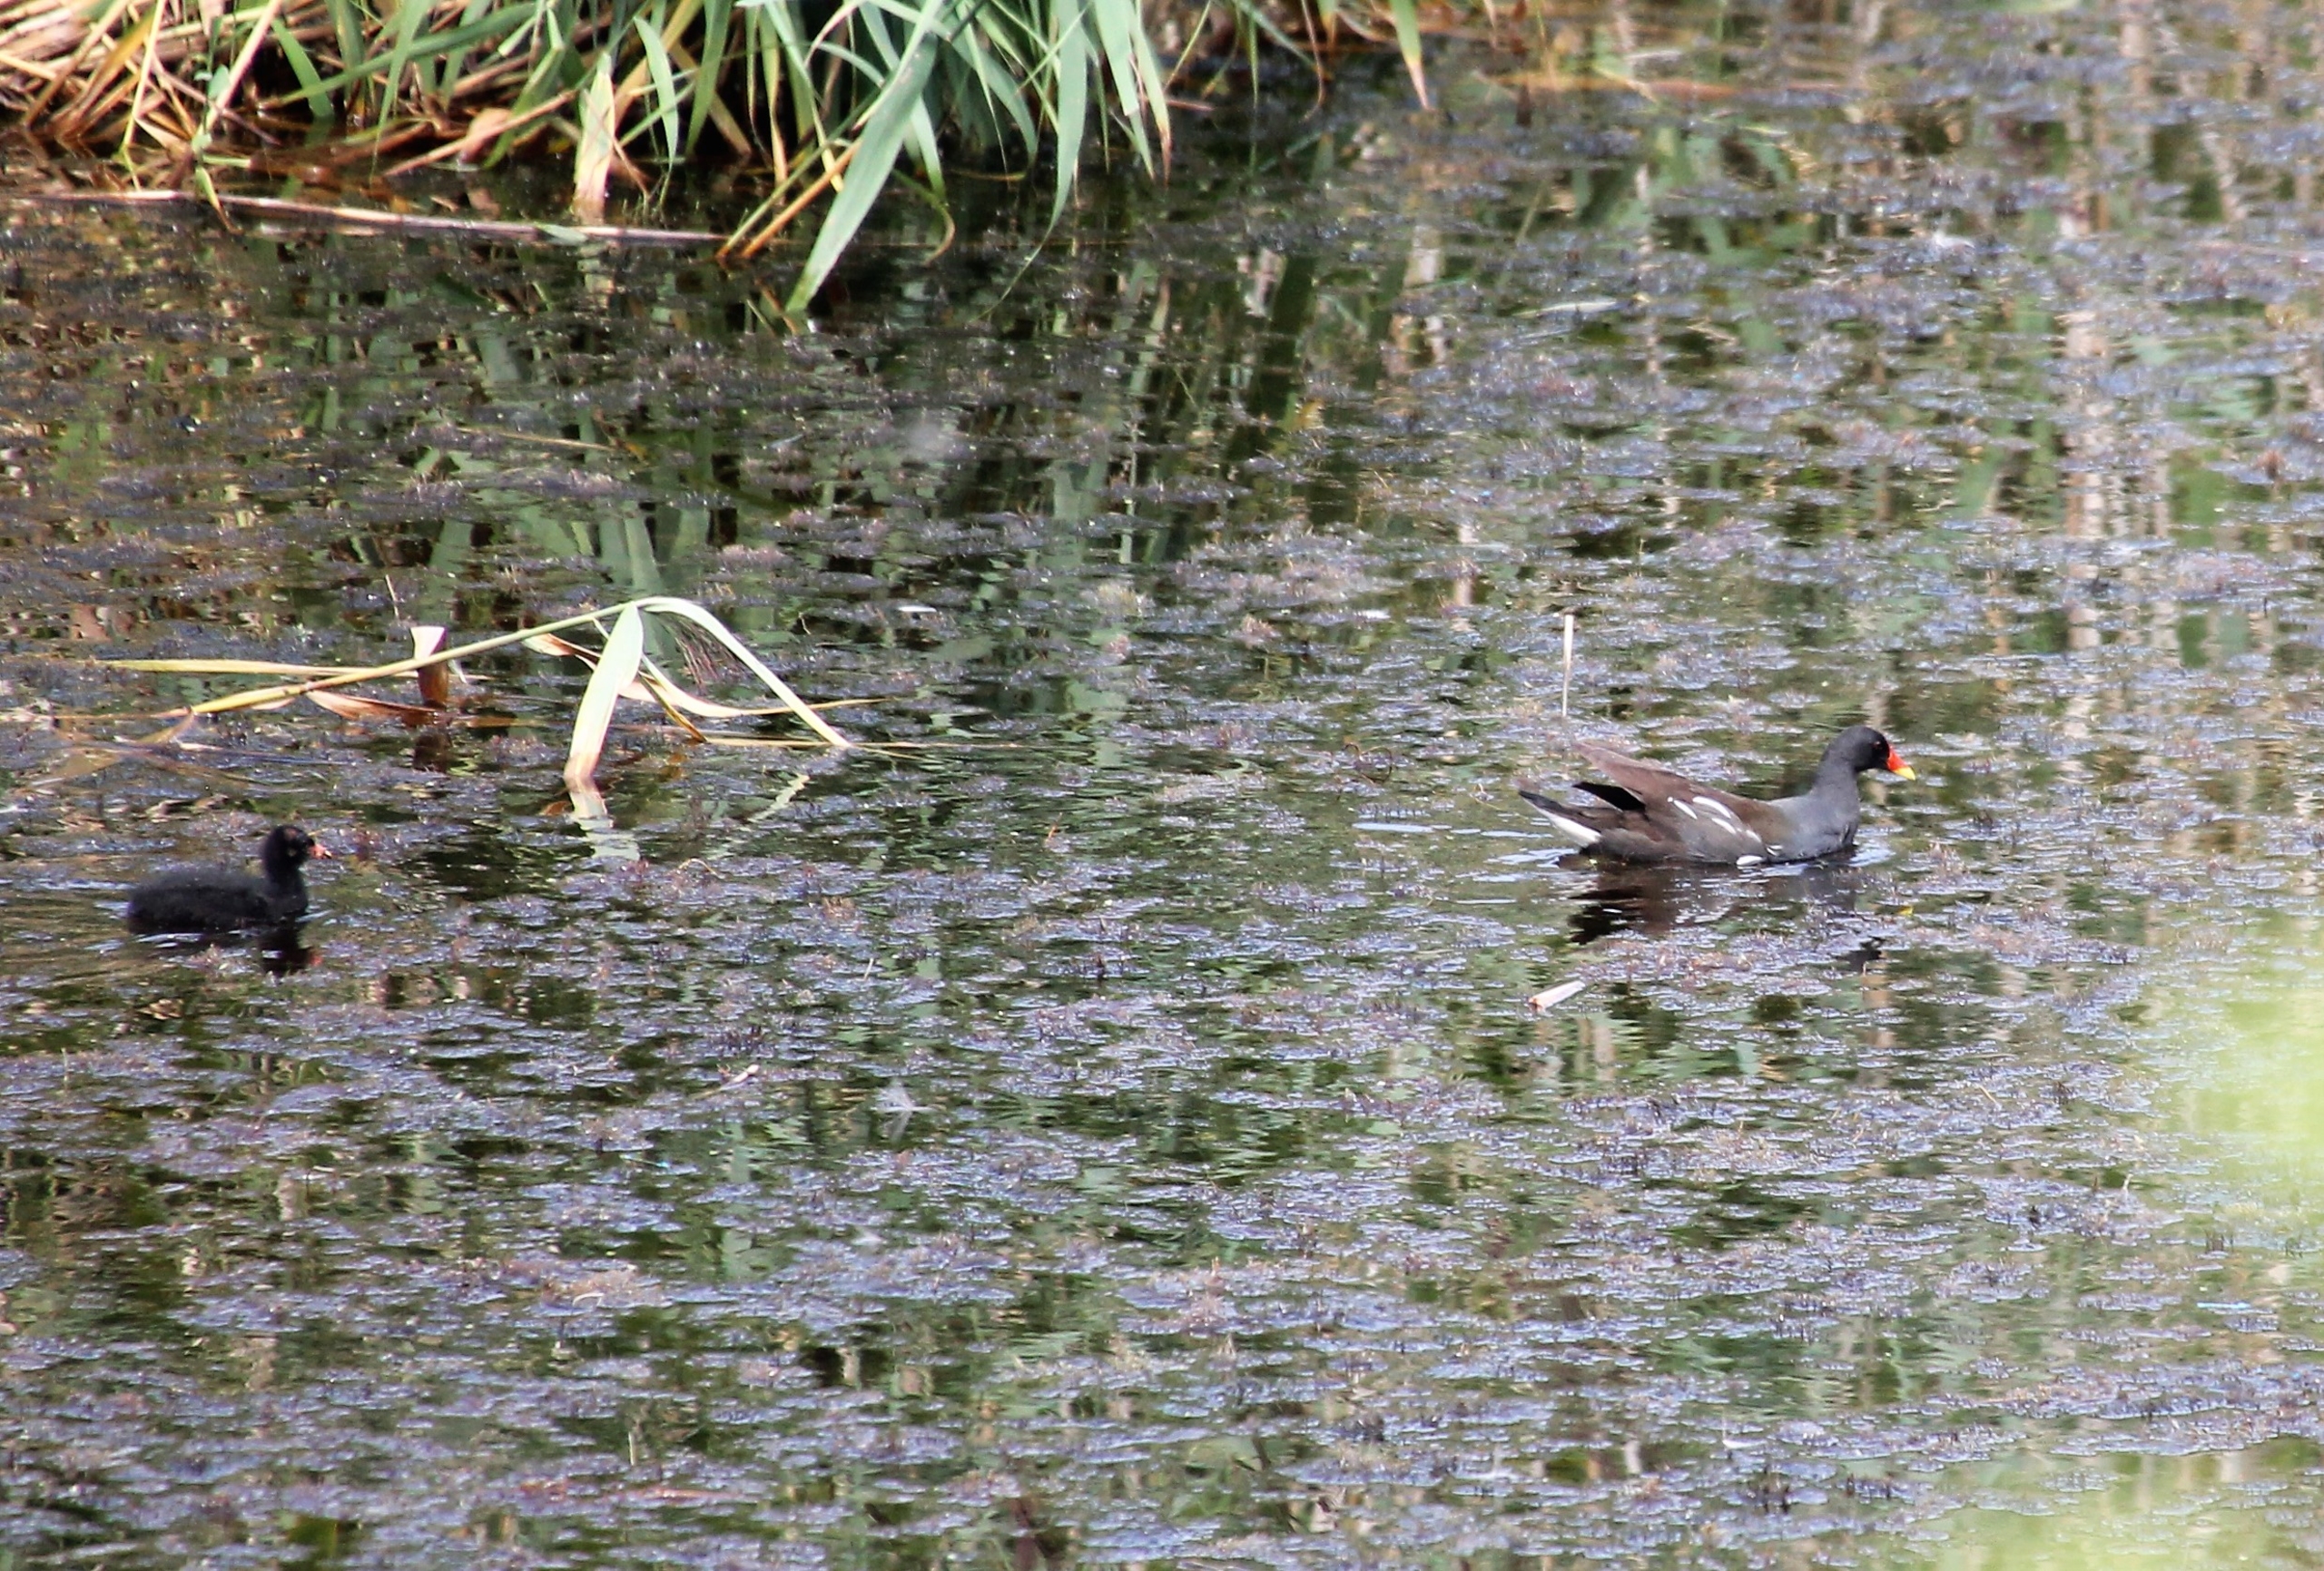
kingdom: Animalia
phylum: Chordata
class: Aves
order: Gruiformes
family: Rallidae
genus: Gallinula
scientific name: Gallinula chloropus
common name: Grønbenet rørhøne
